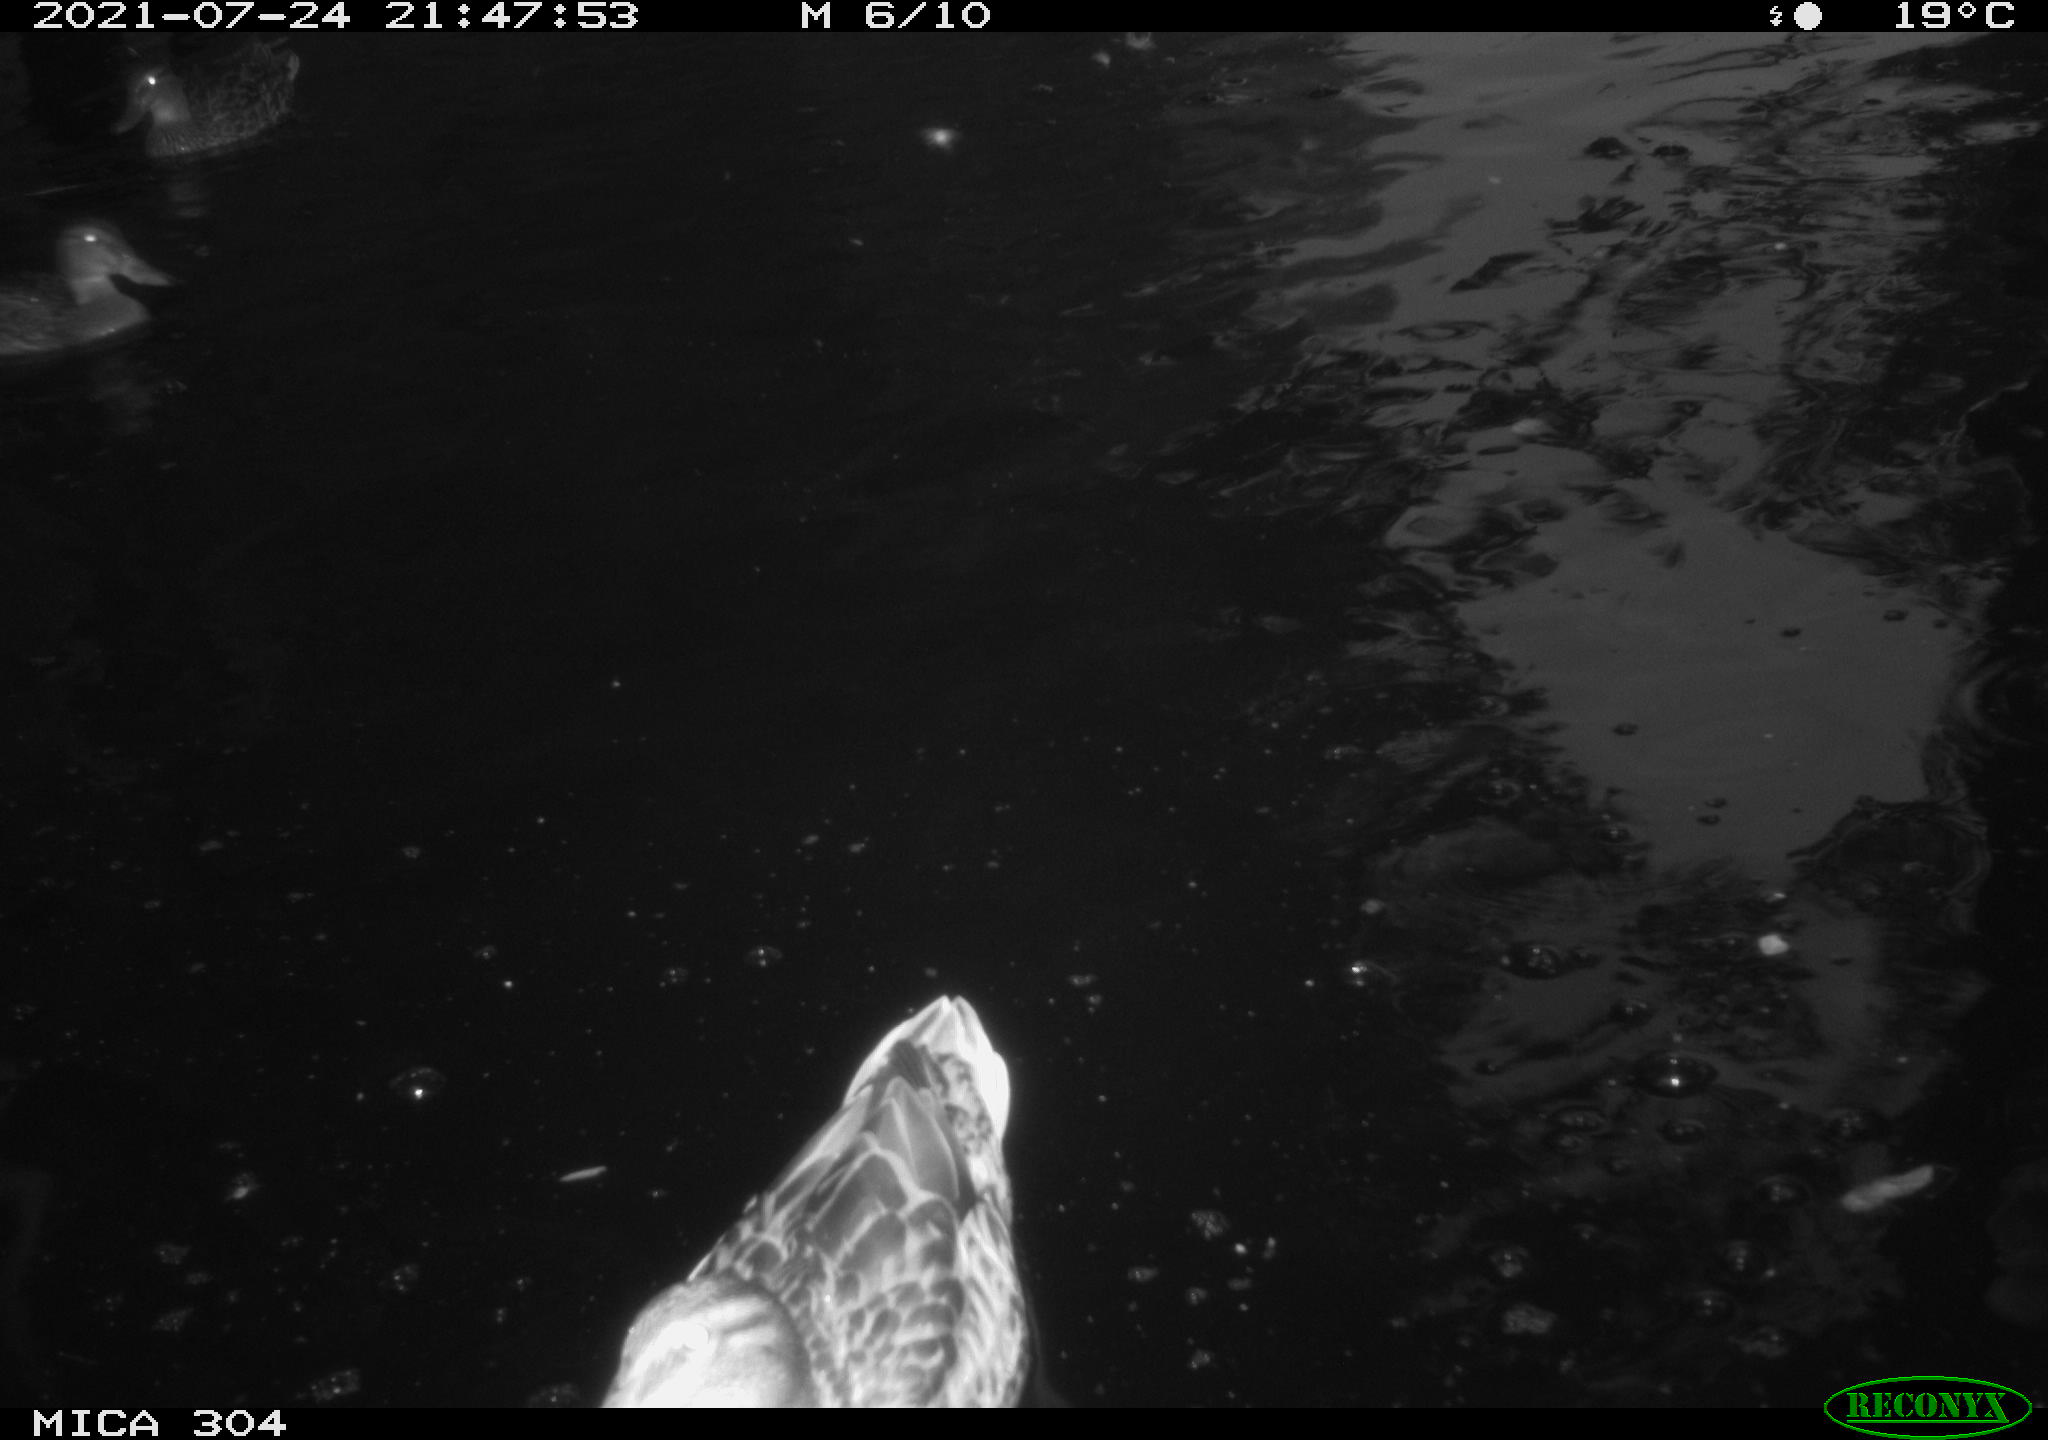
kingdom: Animalia
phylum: Chordata
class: Aves
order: Anseriformes
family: Anatidae
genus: Mareca
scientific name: Mareca strepera
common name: Gadwall
